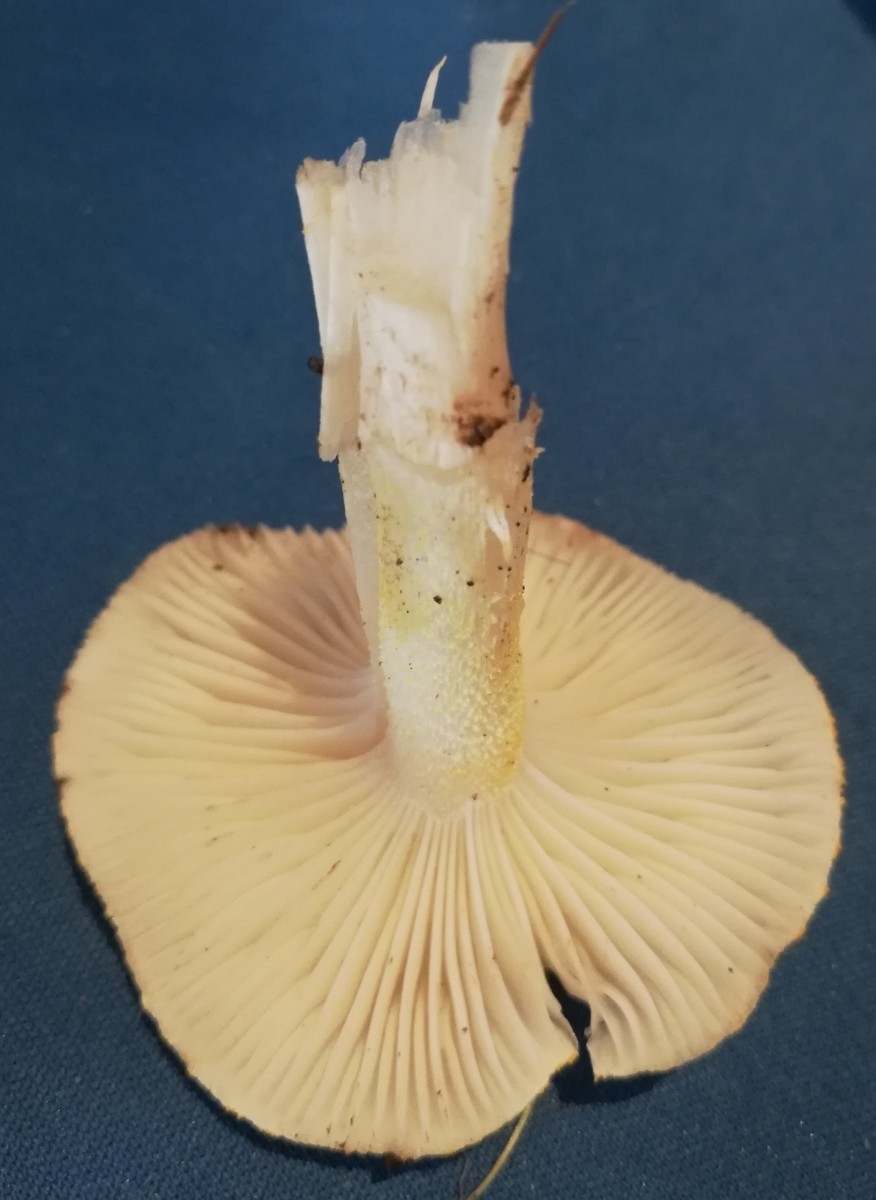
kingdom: Fungi
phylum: Basidiomycota
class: Agaricomycetes
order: Agaricales
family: Hygrophoraceae
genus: Hygrophorus
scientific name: Hygrophorus chrysodon
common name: gulfnugget sneglehat
